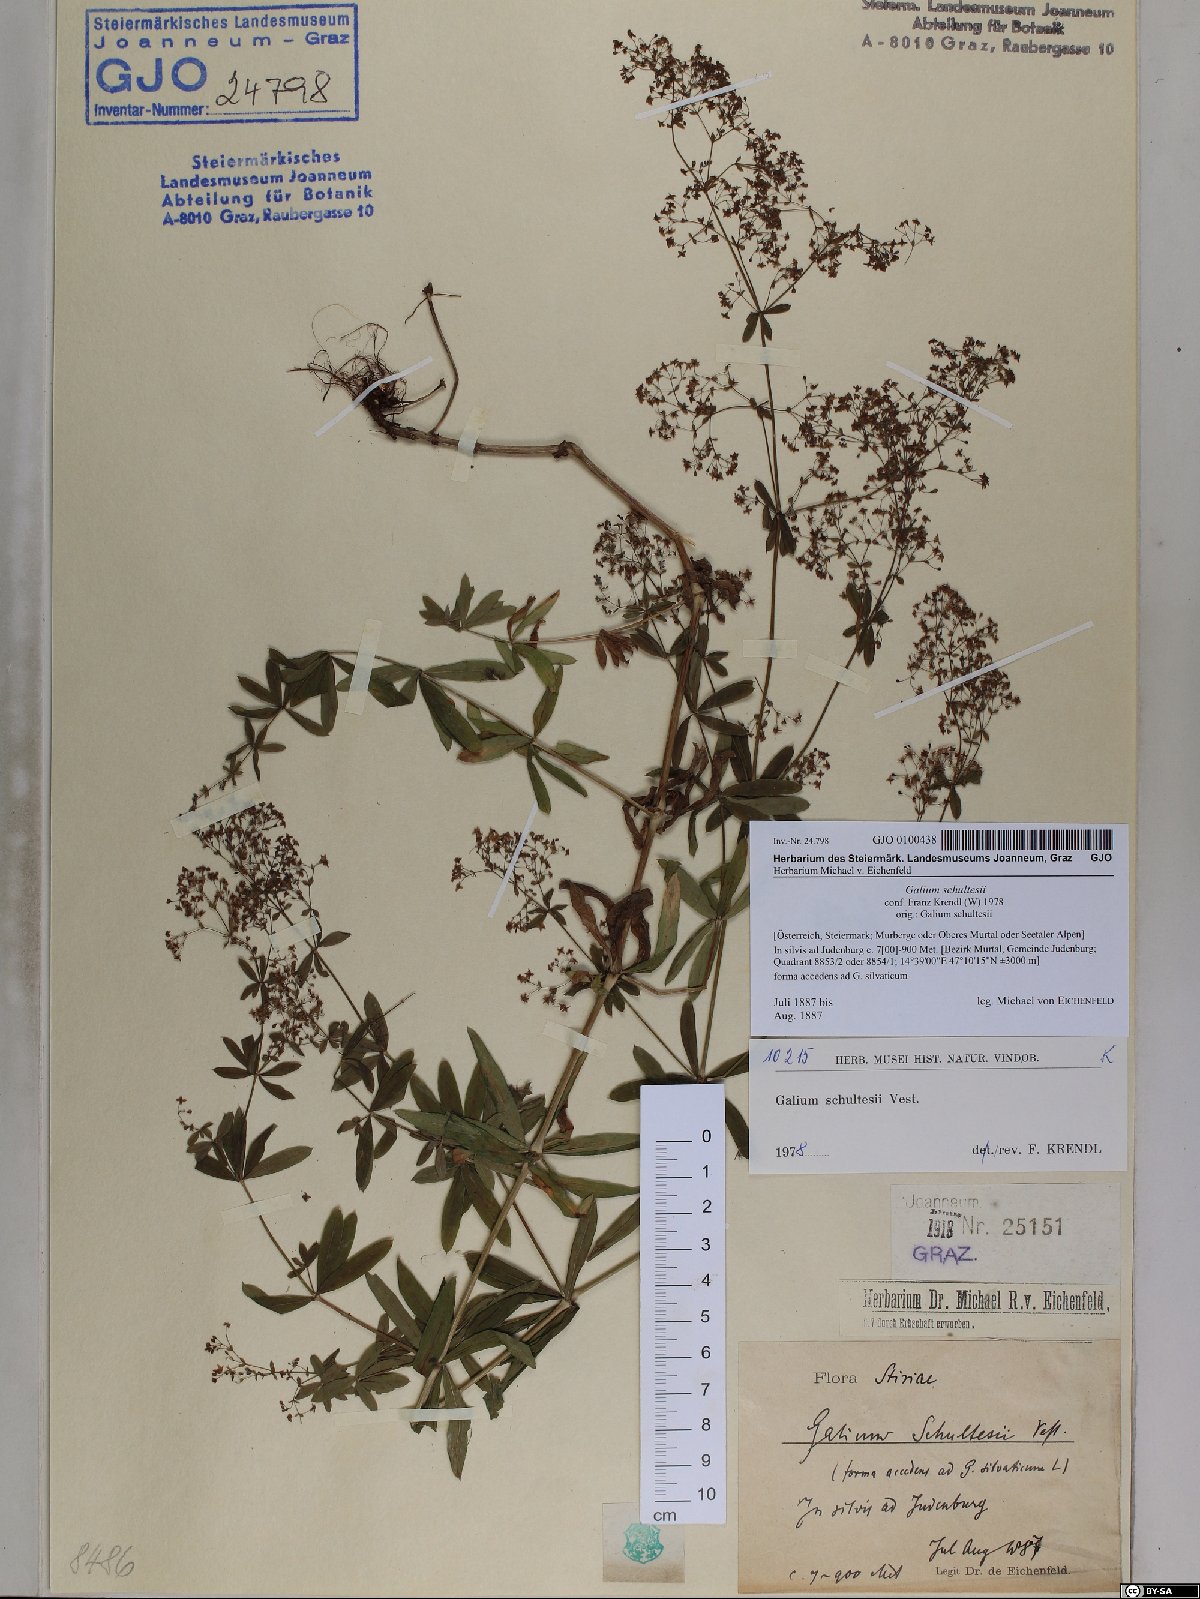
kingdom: Plantae
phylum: Tracheophyta
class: Magnoliopsida
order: Gentianales
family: Rubiaceae
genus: Galium
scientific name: Galium intermedium
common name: Bedstraw
